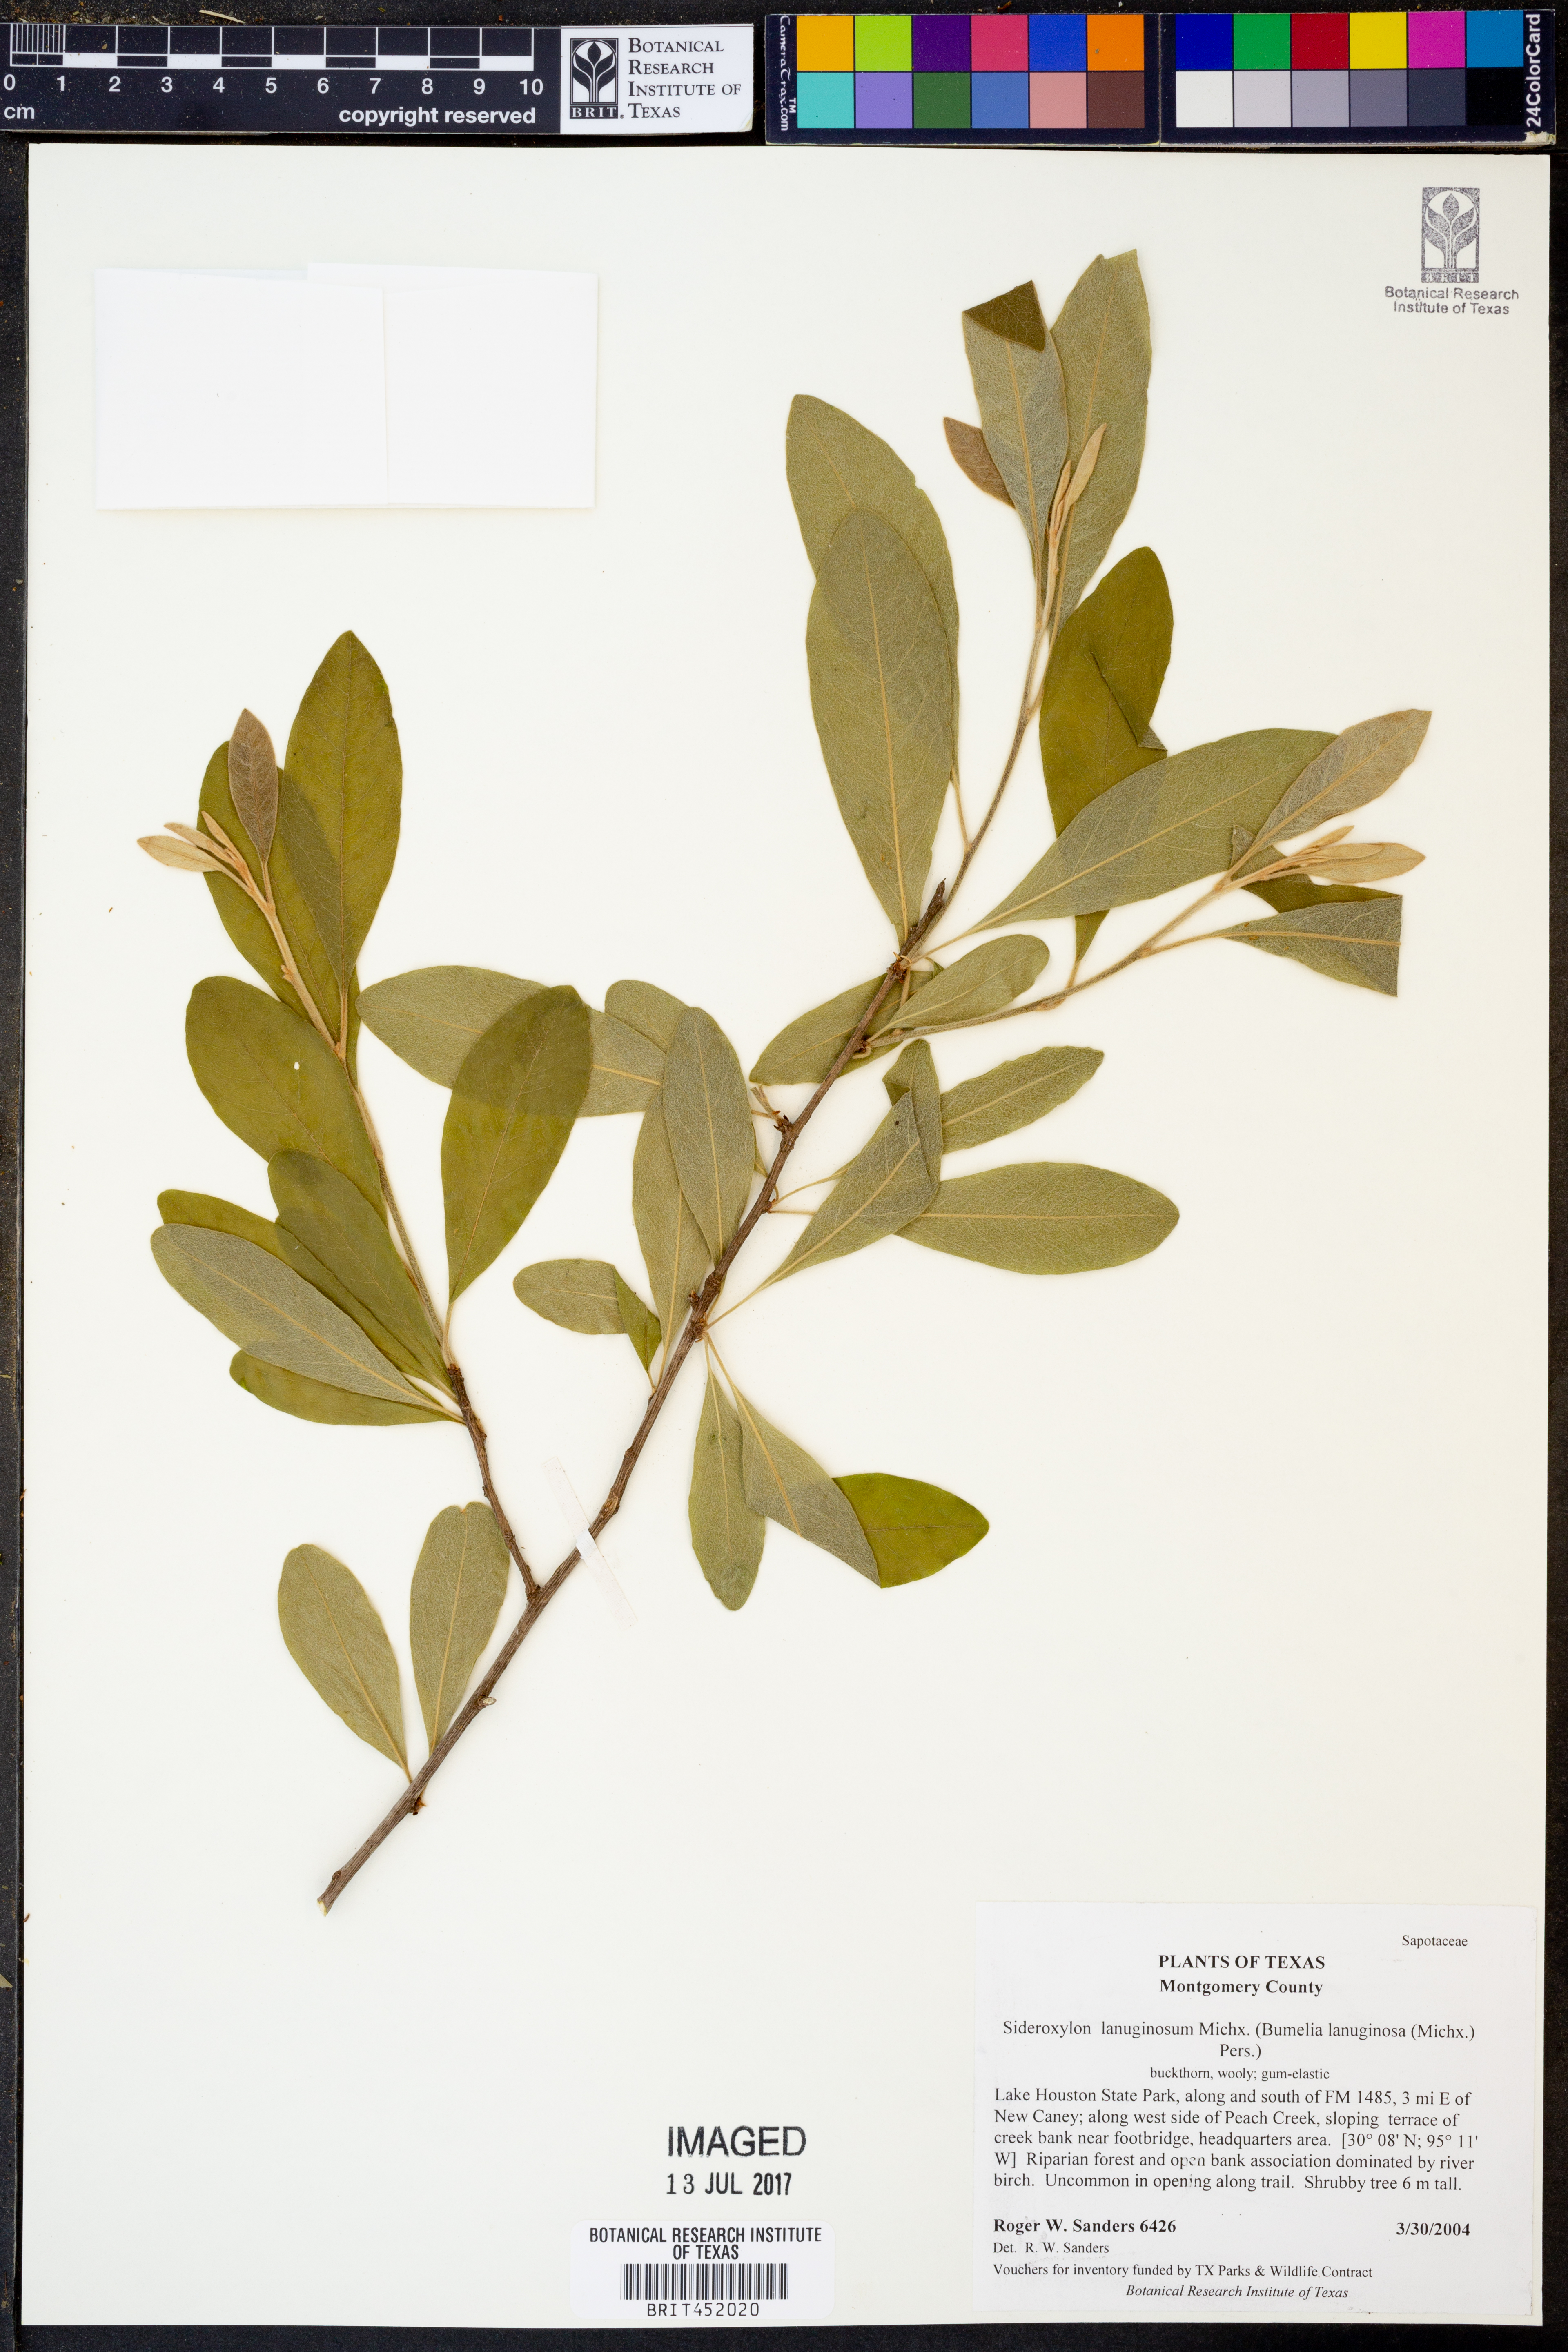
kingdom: Plantae
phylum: Tracheophyta
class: Magnoliopsida
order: Ericales
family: Sapotaceae
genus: Sideroxylon
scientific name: Sideroxylon lanuginosum
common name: Chittamwood
